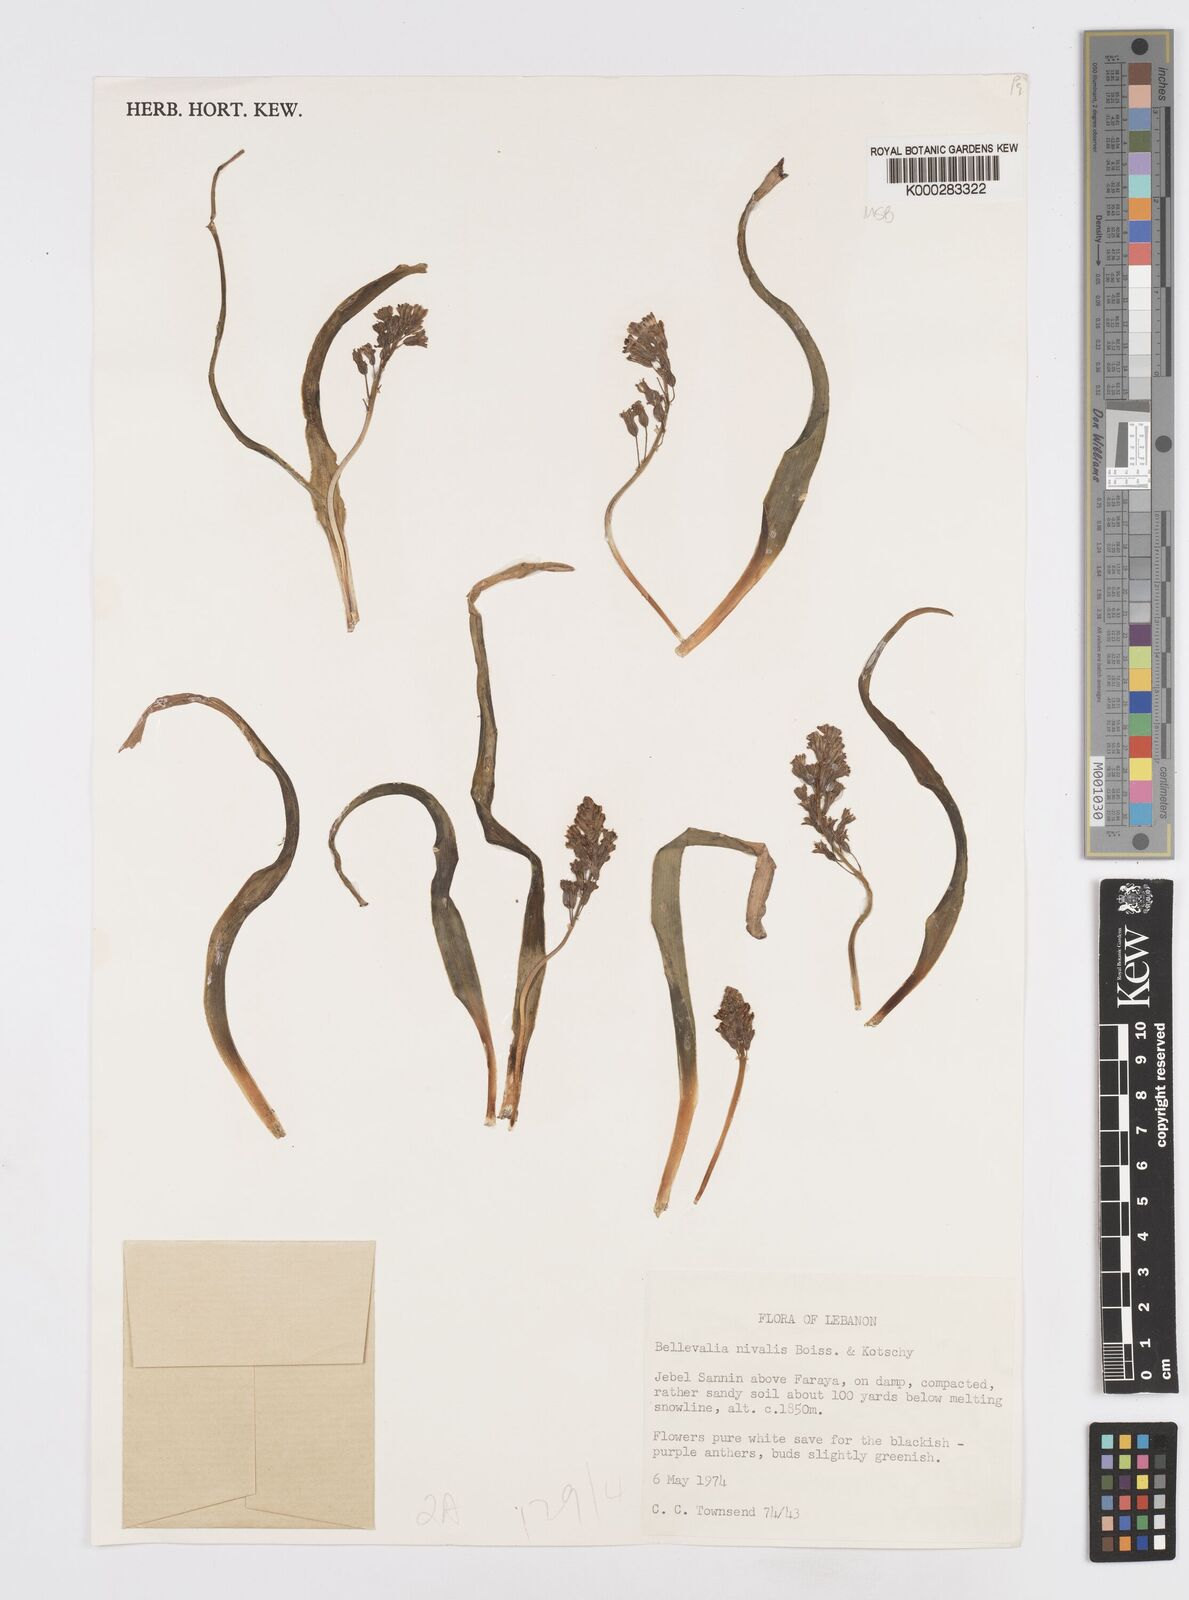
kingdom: Plantae
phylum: Tracheophyta
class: Liliopsida
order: Asparagales
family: Asparagaceae
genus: Bellevalia
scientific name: Bellevalia nivalis
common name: Snow bellevalia
